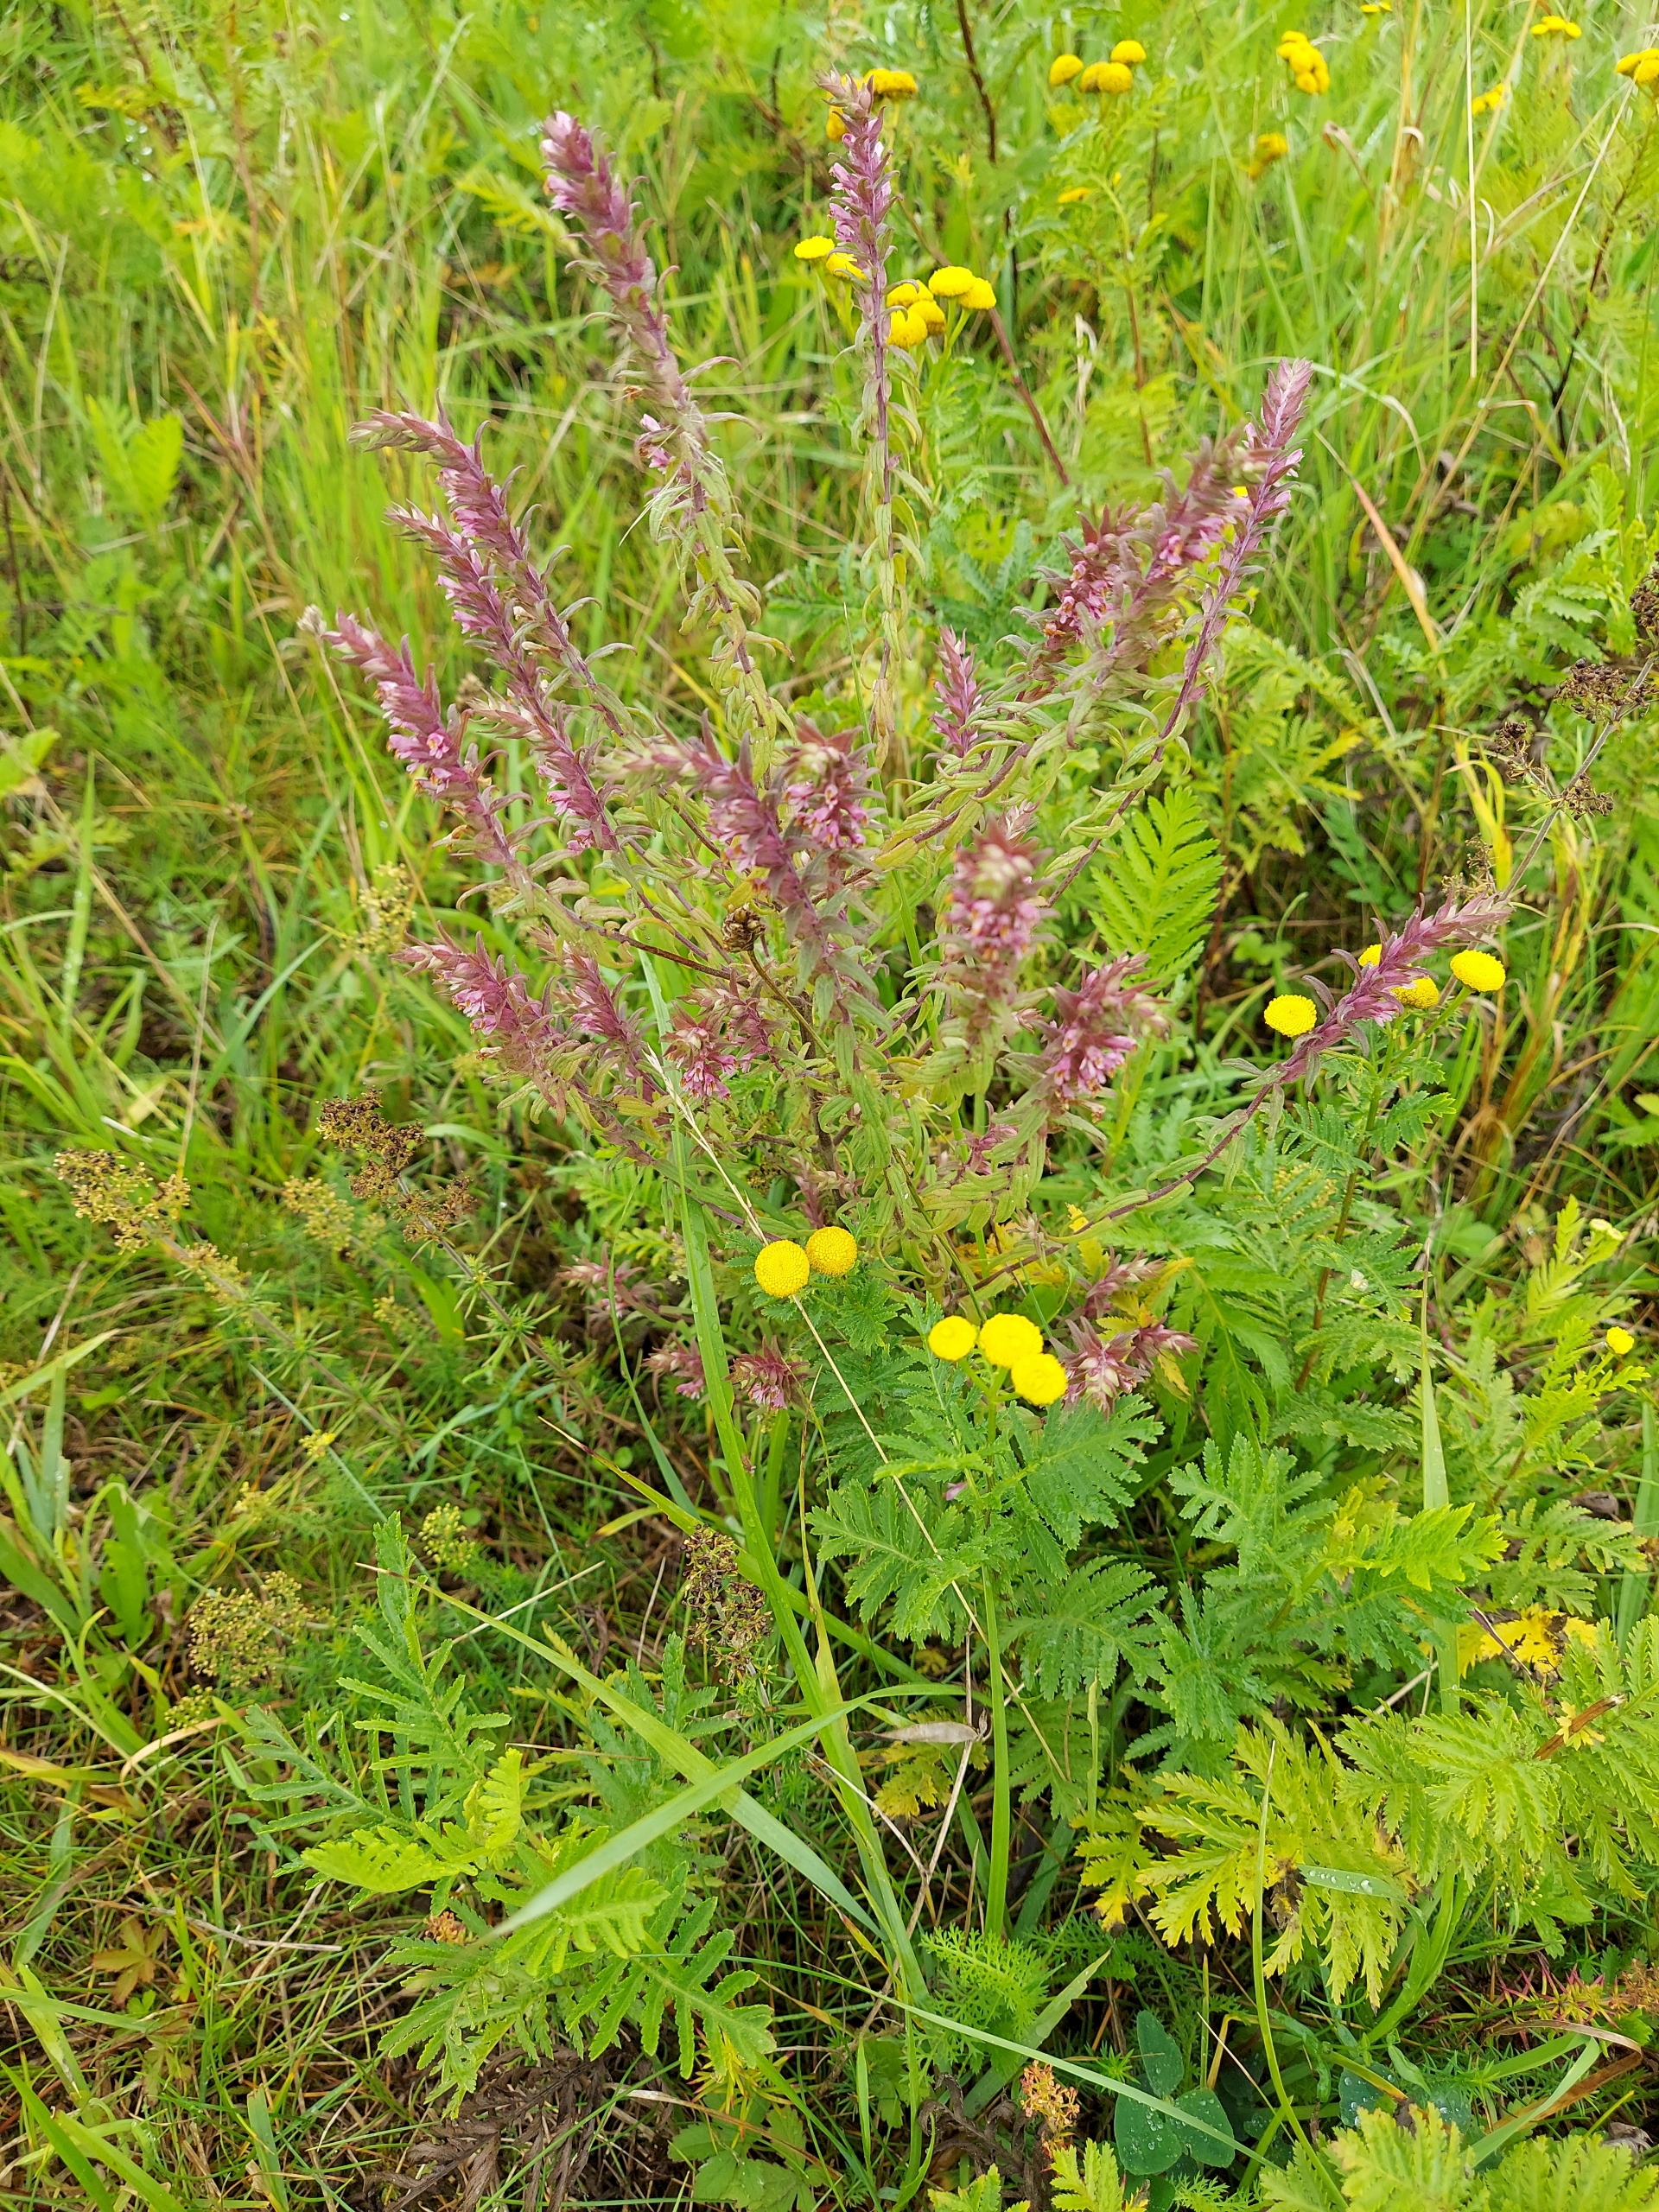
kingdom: Plantae
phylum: Tracheophyta
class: Magnoliopsida
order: Lamiales
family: Orobanchaceae
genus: Odontites
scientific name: Odontites vulgaris
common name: Høst-rødtop
